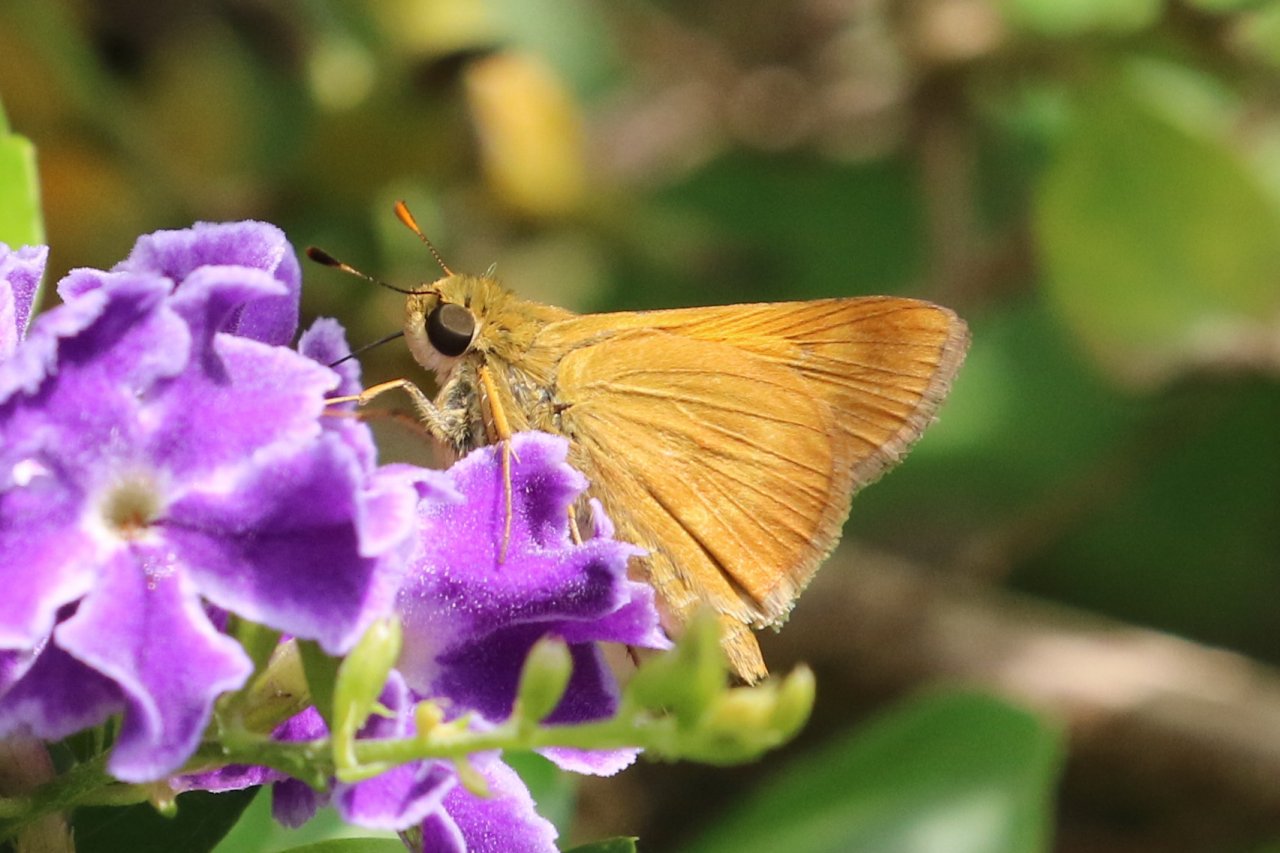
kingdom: Animalia
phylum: Arthropoda
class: Insecta
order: Lepidoptera
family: Hesperiidae
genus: Wallengrenia
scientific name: Wallengrenia otho
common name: Southern Broken-Dash
